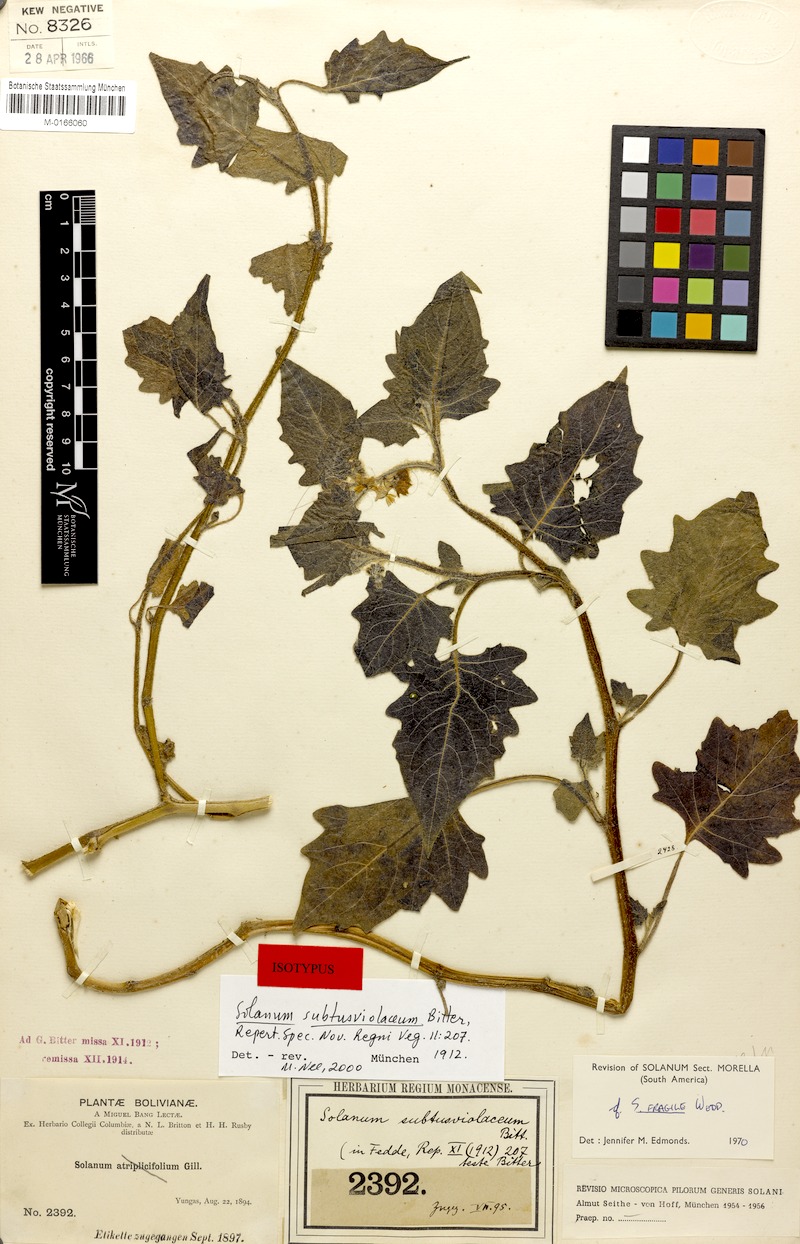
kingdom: Plantae
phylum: Tracheophyta
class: Magnoliopsida
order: Solanales
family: Solanaceae
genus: Solanum
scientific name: Solanum pallidum
